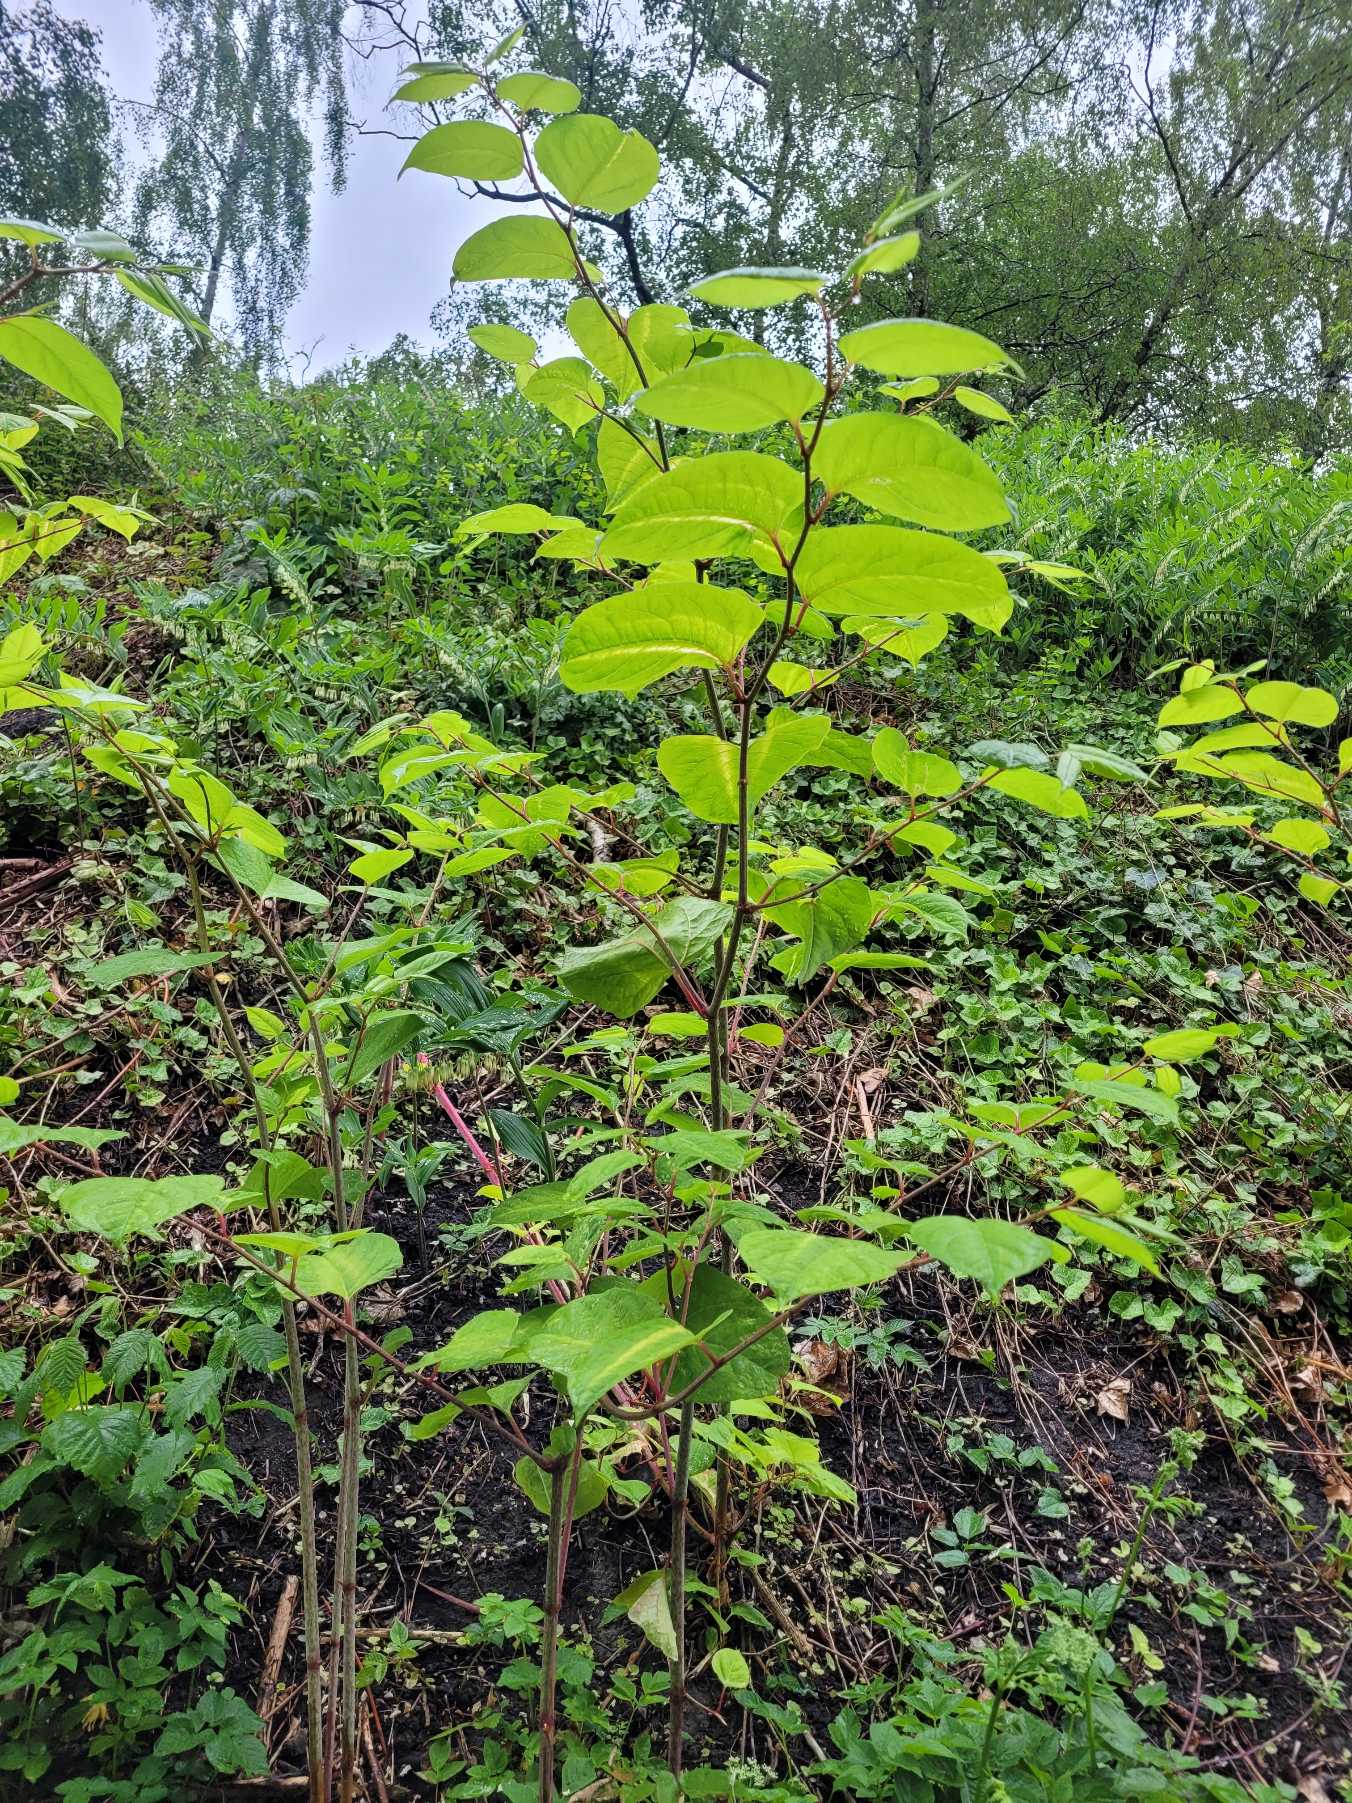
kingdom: Plantae
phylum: Tracheophyta
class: Magnoliopsida
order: Caryophyllales
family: Polygonaceae
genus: Reynoutria
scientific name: Reynoutria japonica
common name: Japan-pileurt
